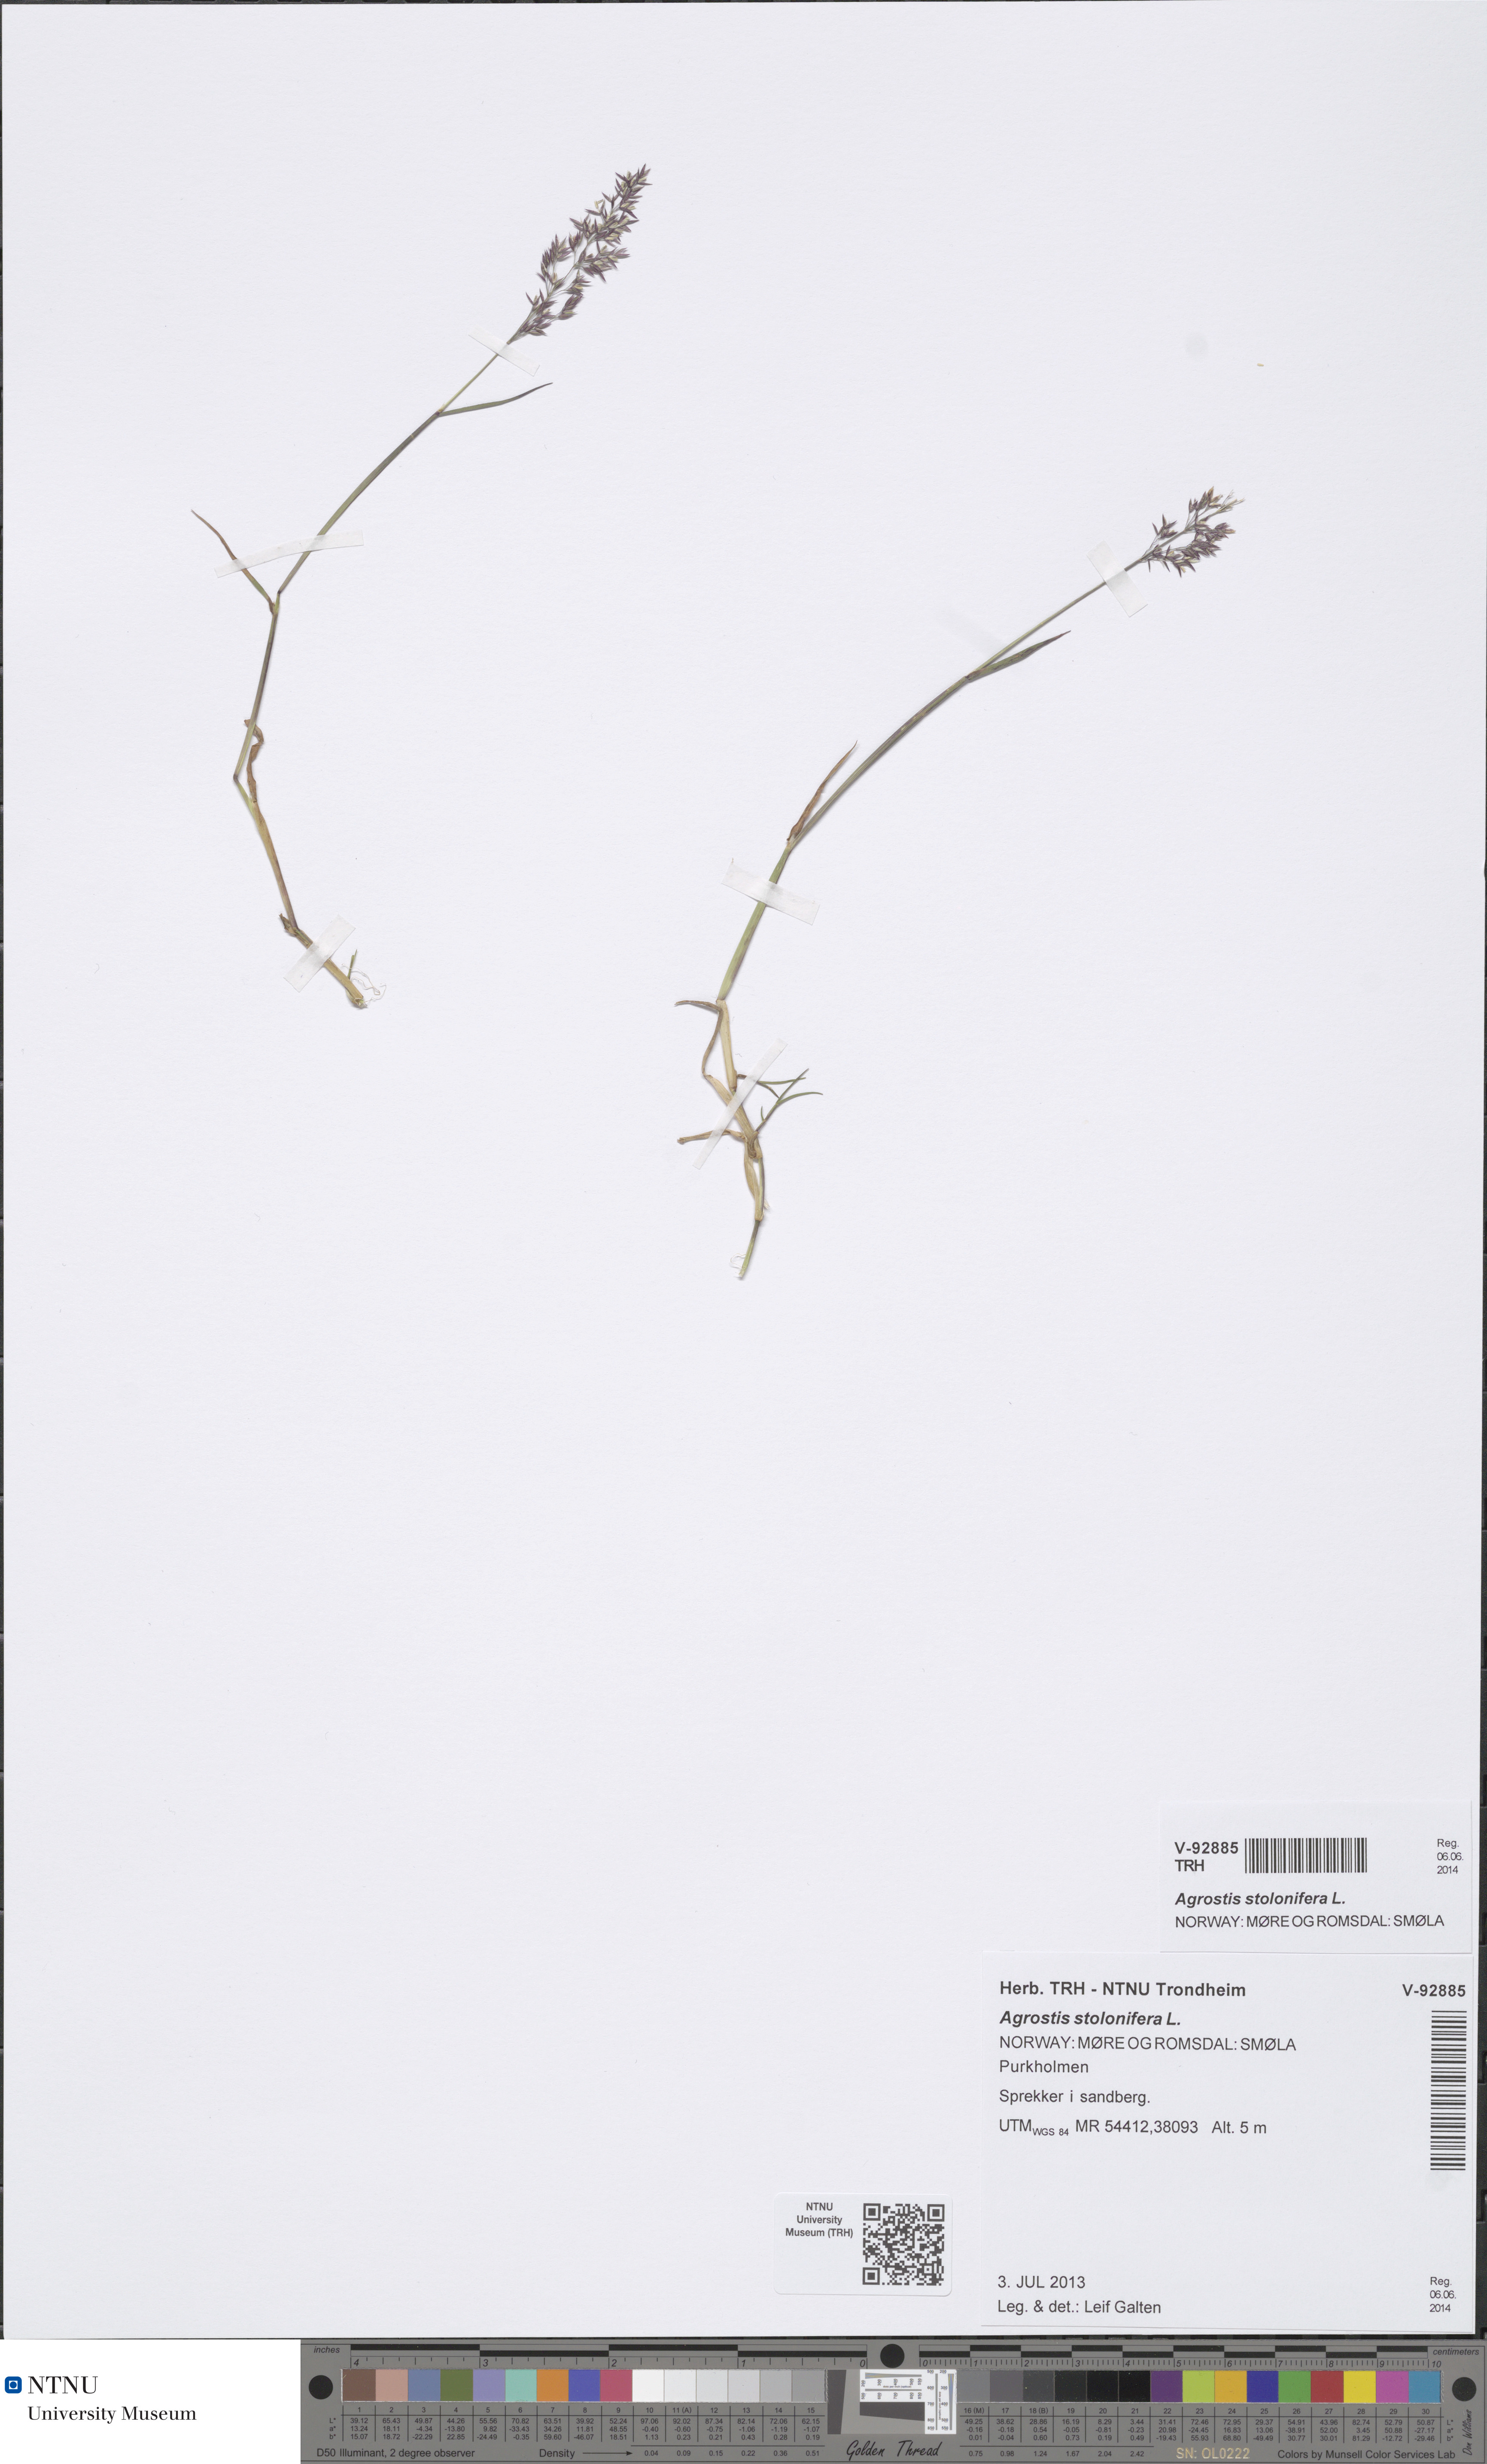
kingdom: Plantae
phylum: Tracheophyta
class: Liliopsida
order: Poales
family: Poaceae
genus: Agrostis
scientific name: Agrostis stolonifera
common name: Creeping bentgrass
